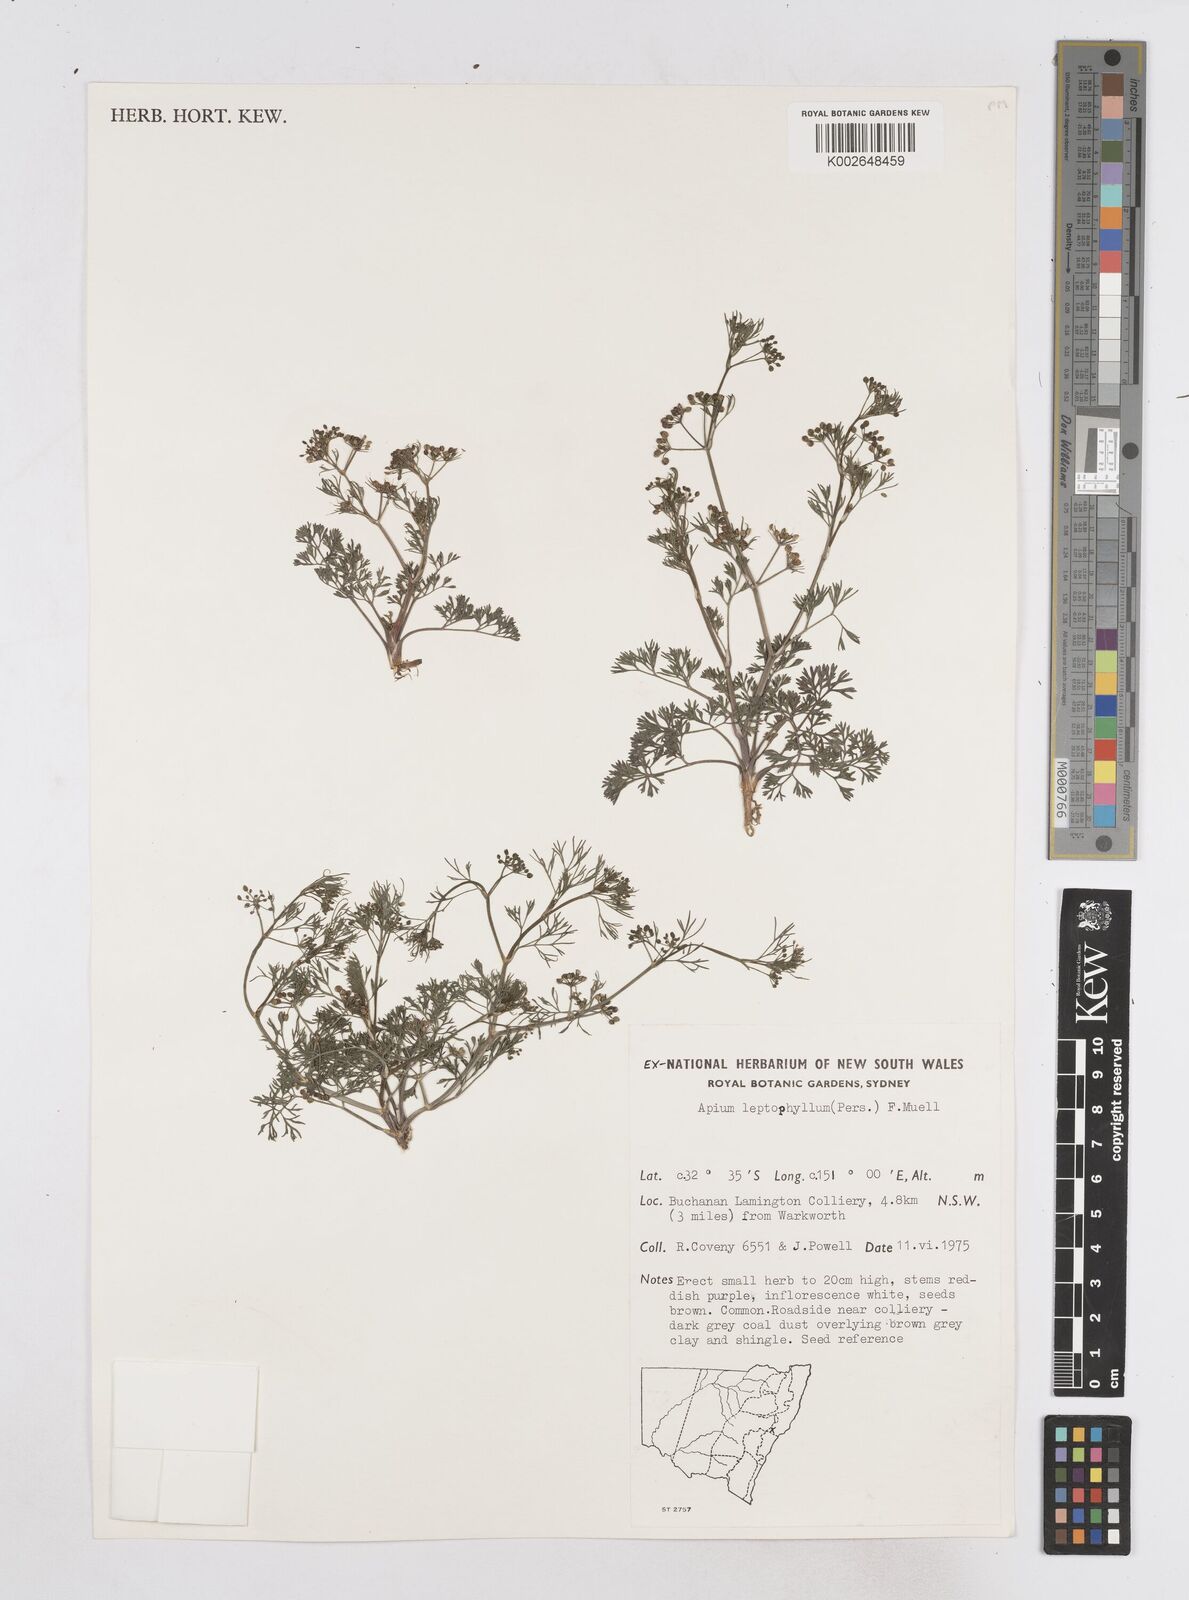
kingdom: Plantae
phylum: Tracheophyta
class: Magnoliopsida
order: Apiales
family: Apiaceae
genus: Cyclospermum
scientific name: Cyclospermum leptophyllum
